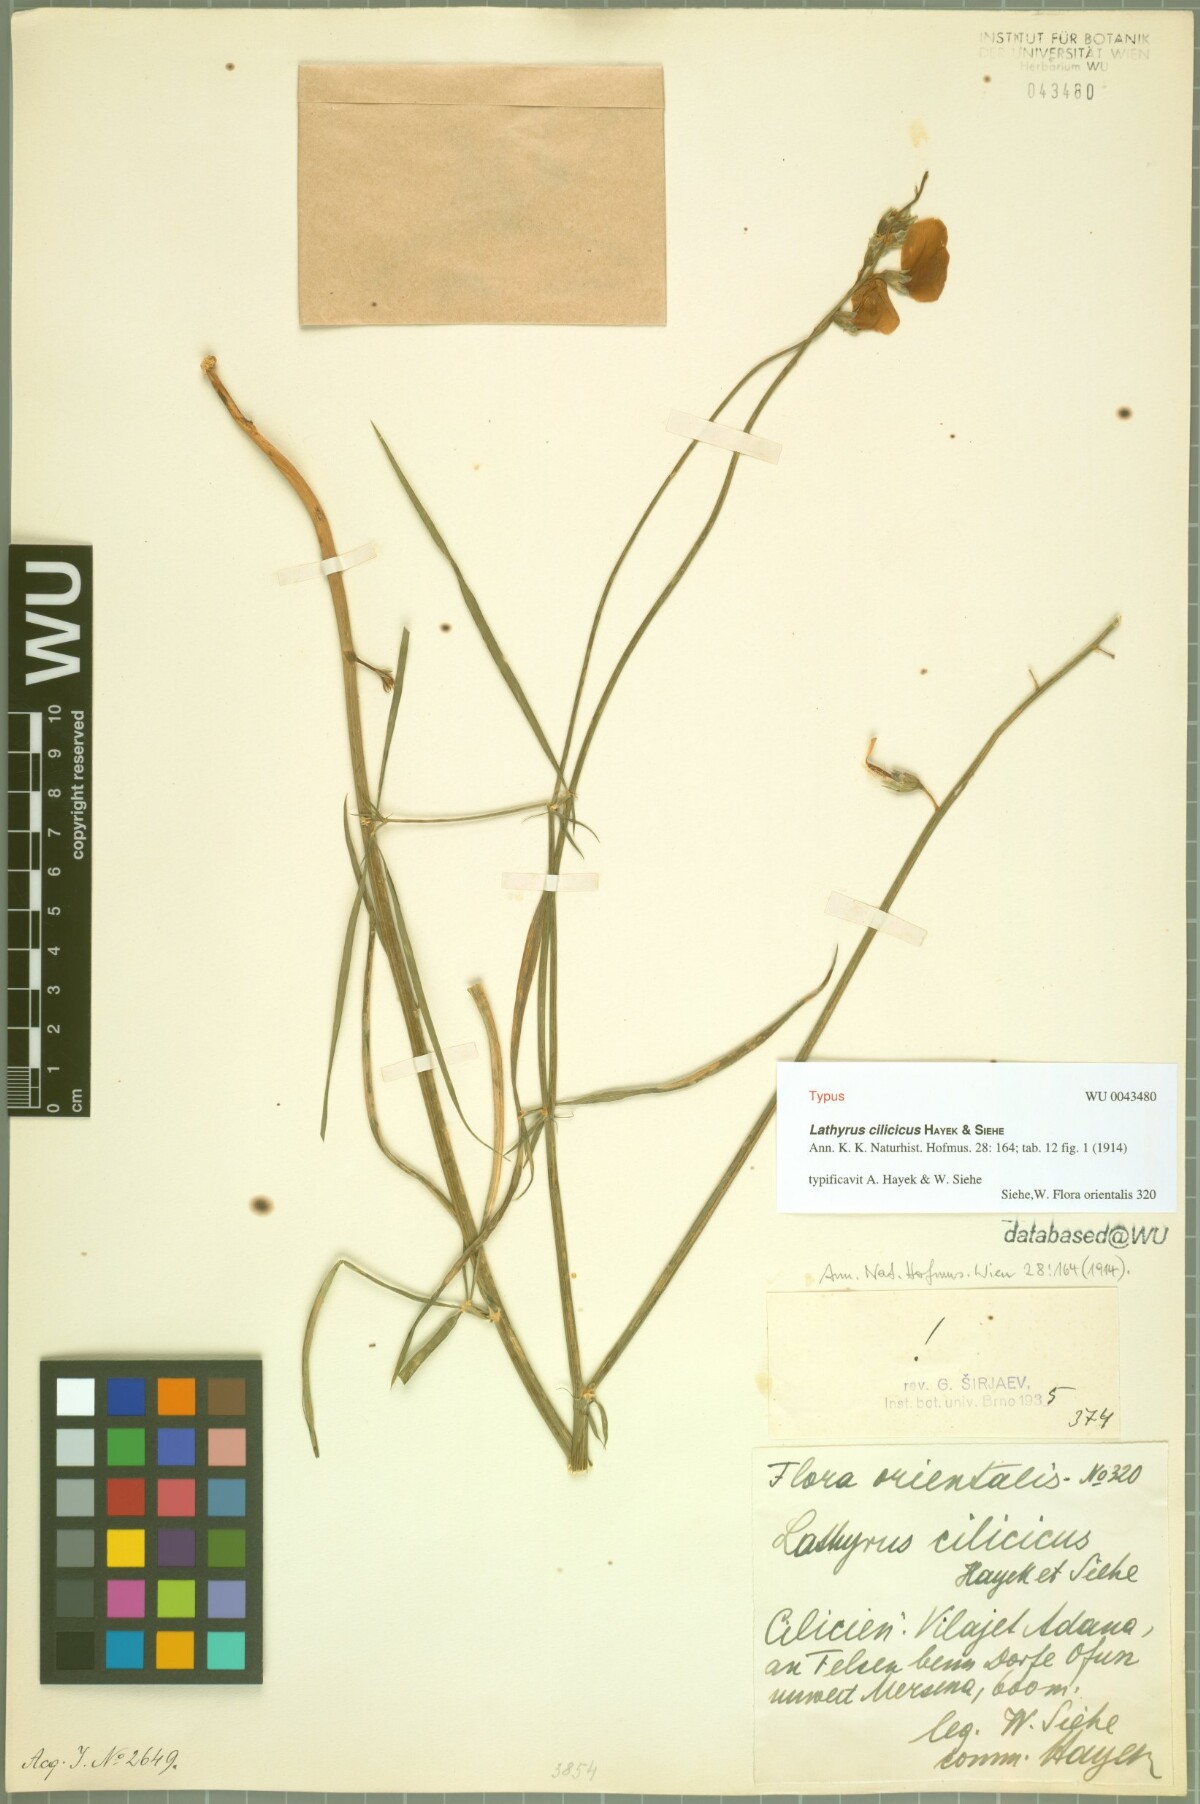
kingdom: Plantae
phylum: Tracheophyta
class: Magnoliopsida
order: Fabales
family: Fabaceae
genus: Lathyrus
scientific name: Lathyrus cilicicus
